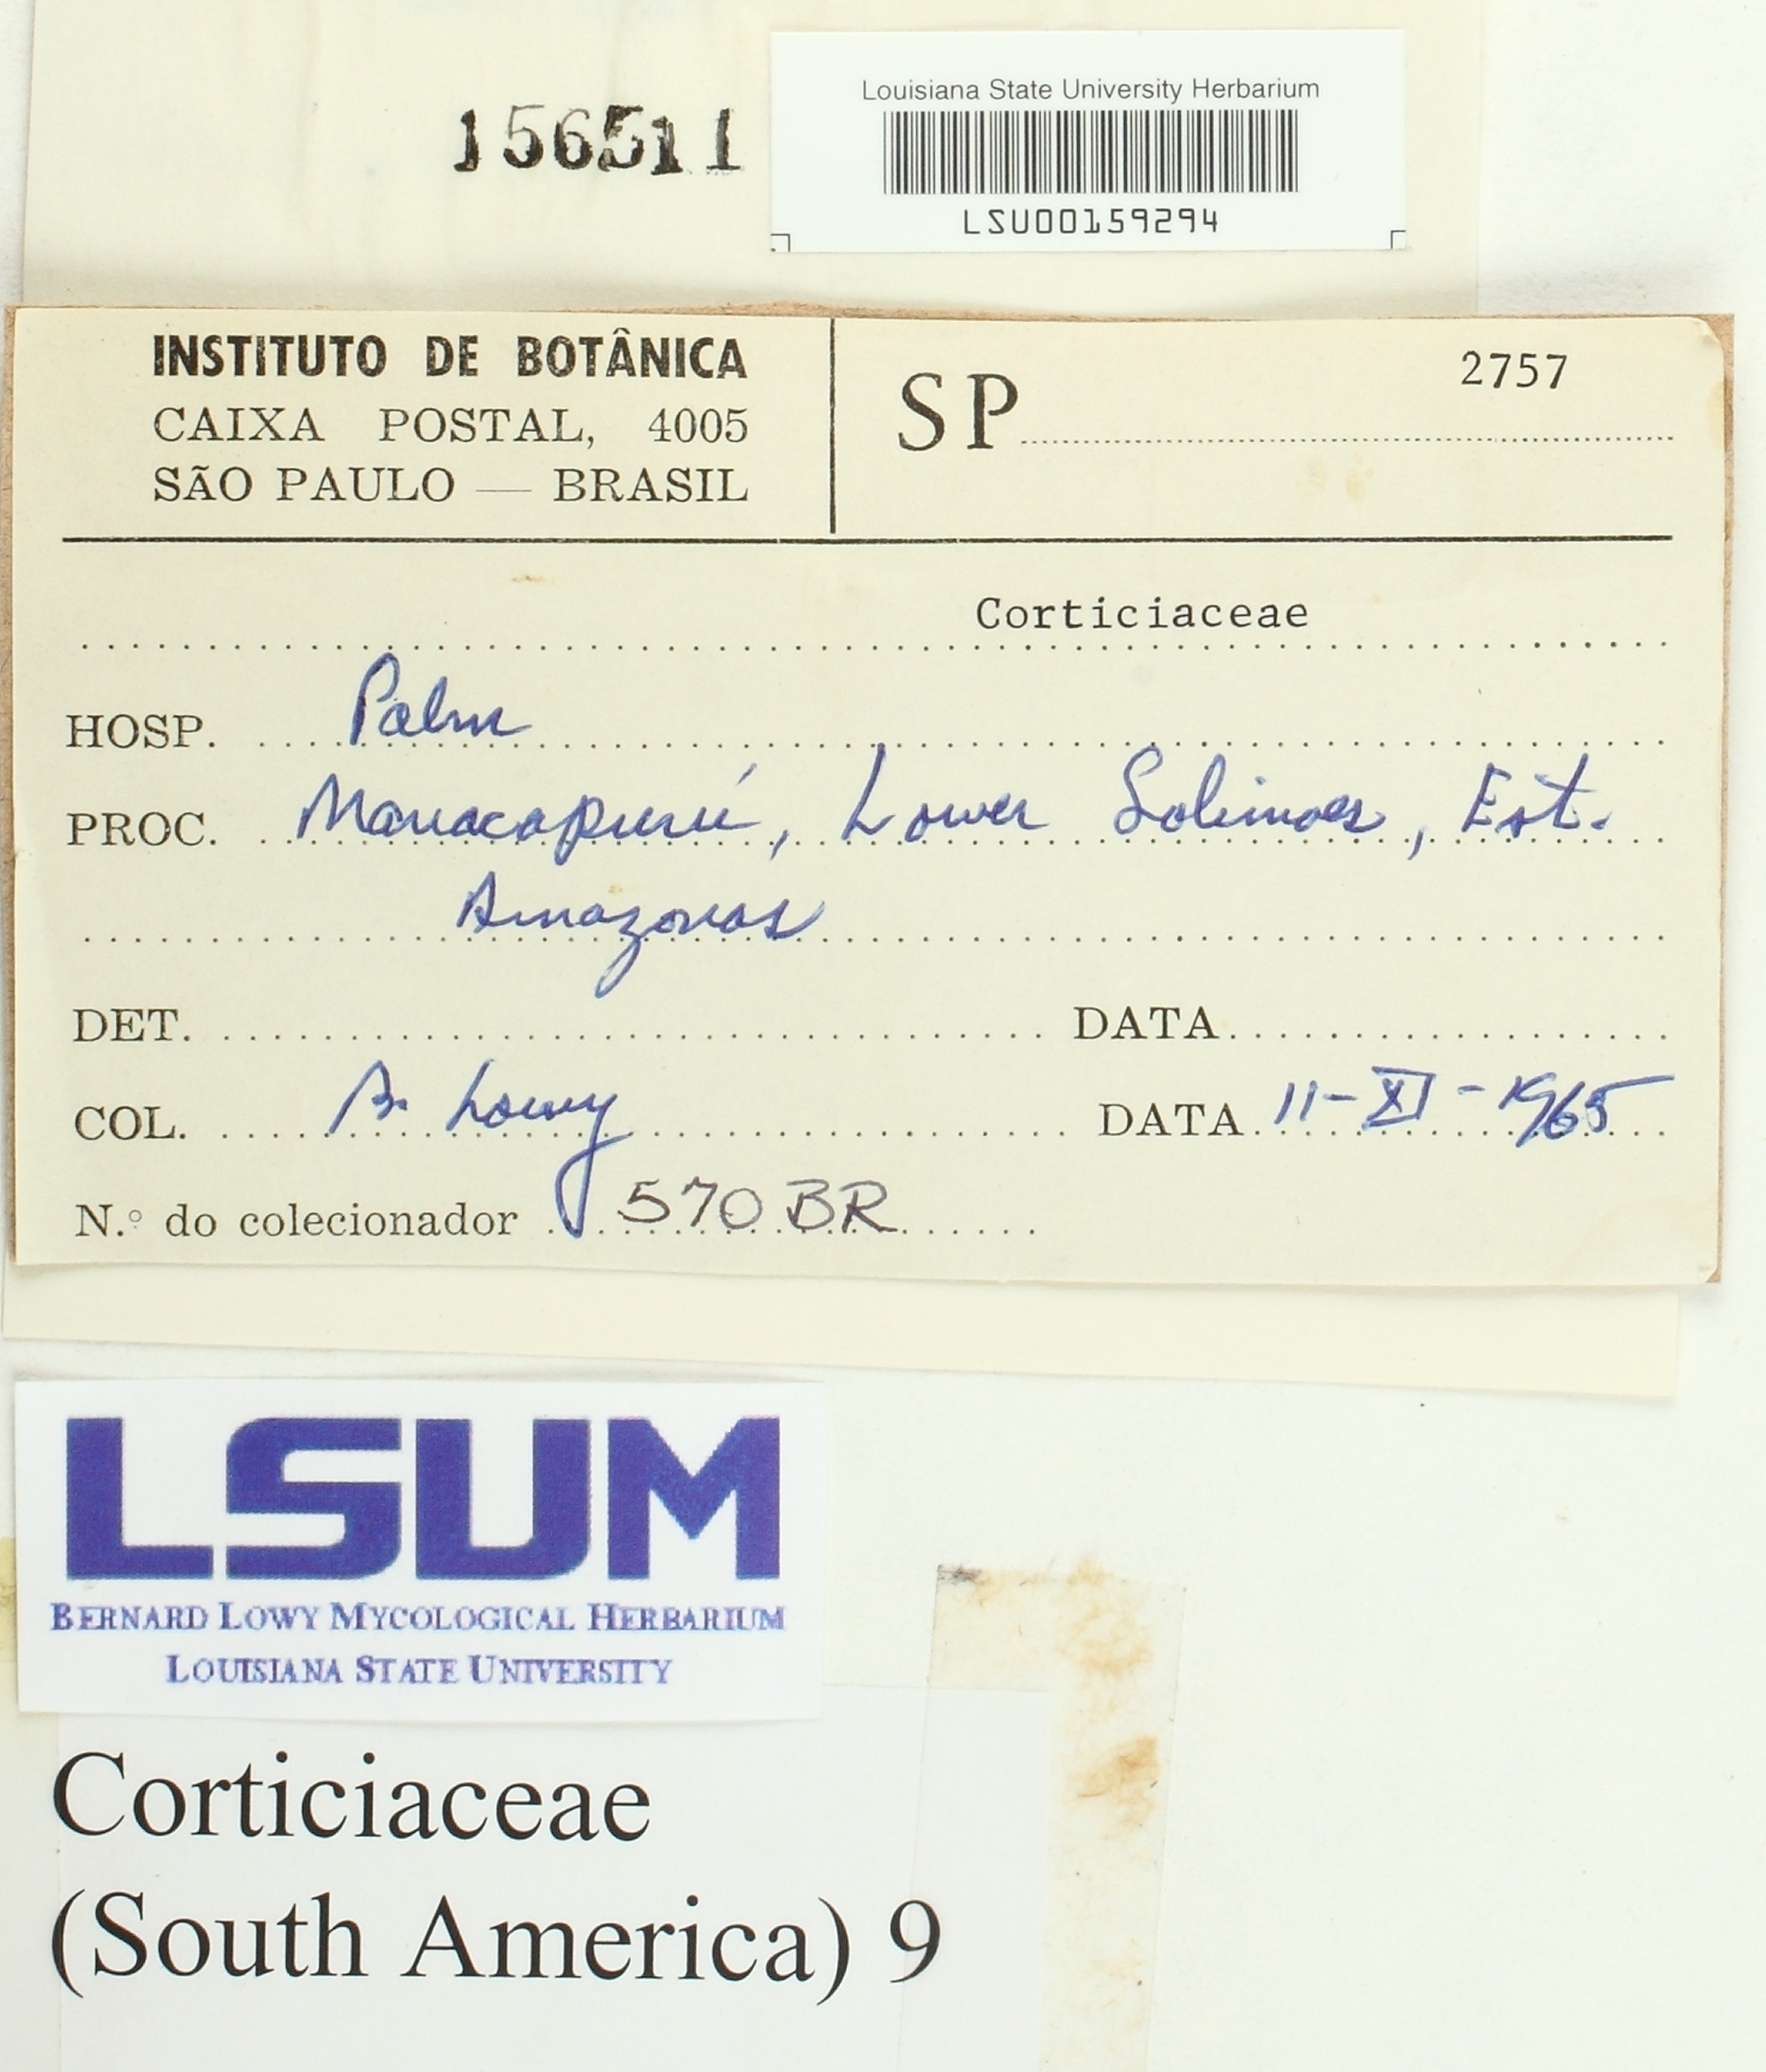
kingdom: Fungi
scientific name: Fungi
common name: Fungi
